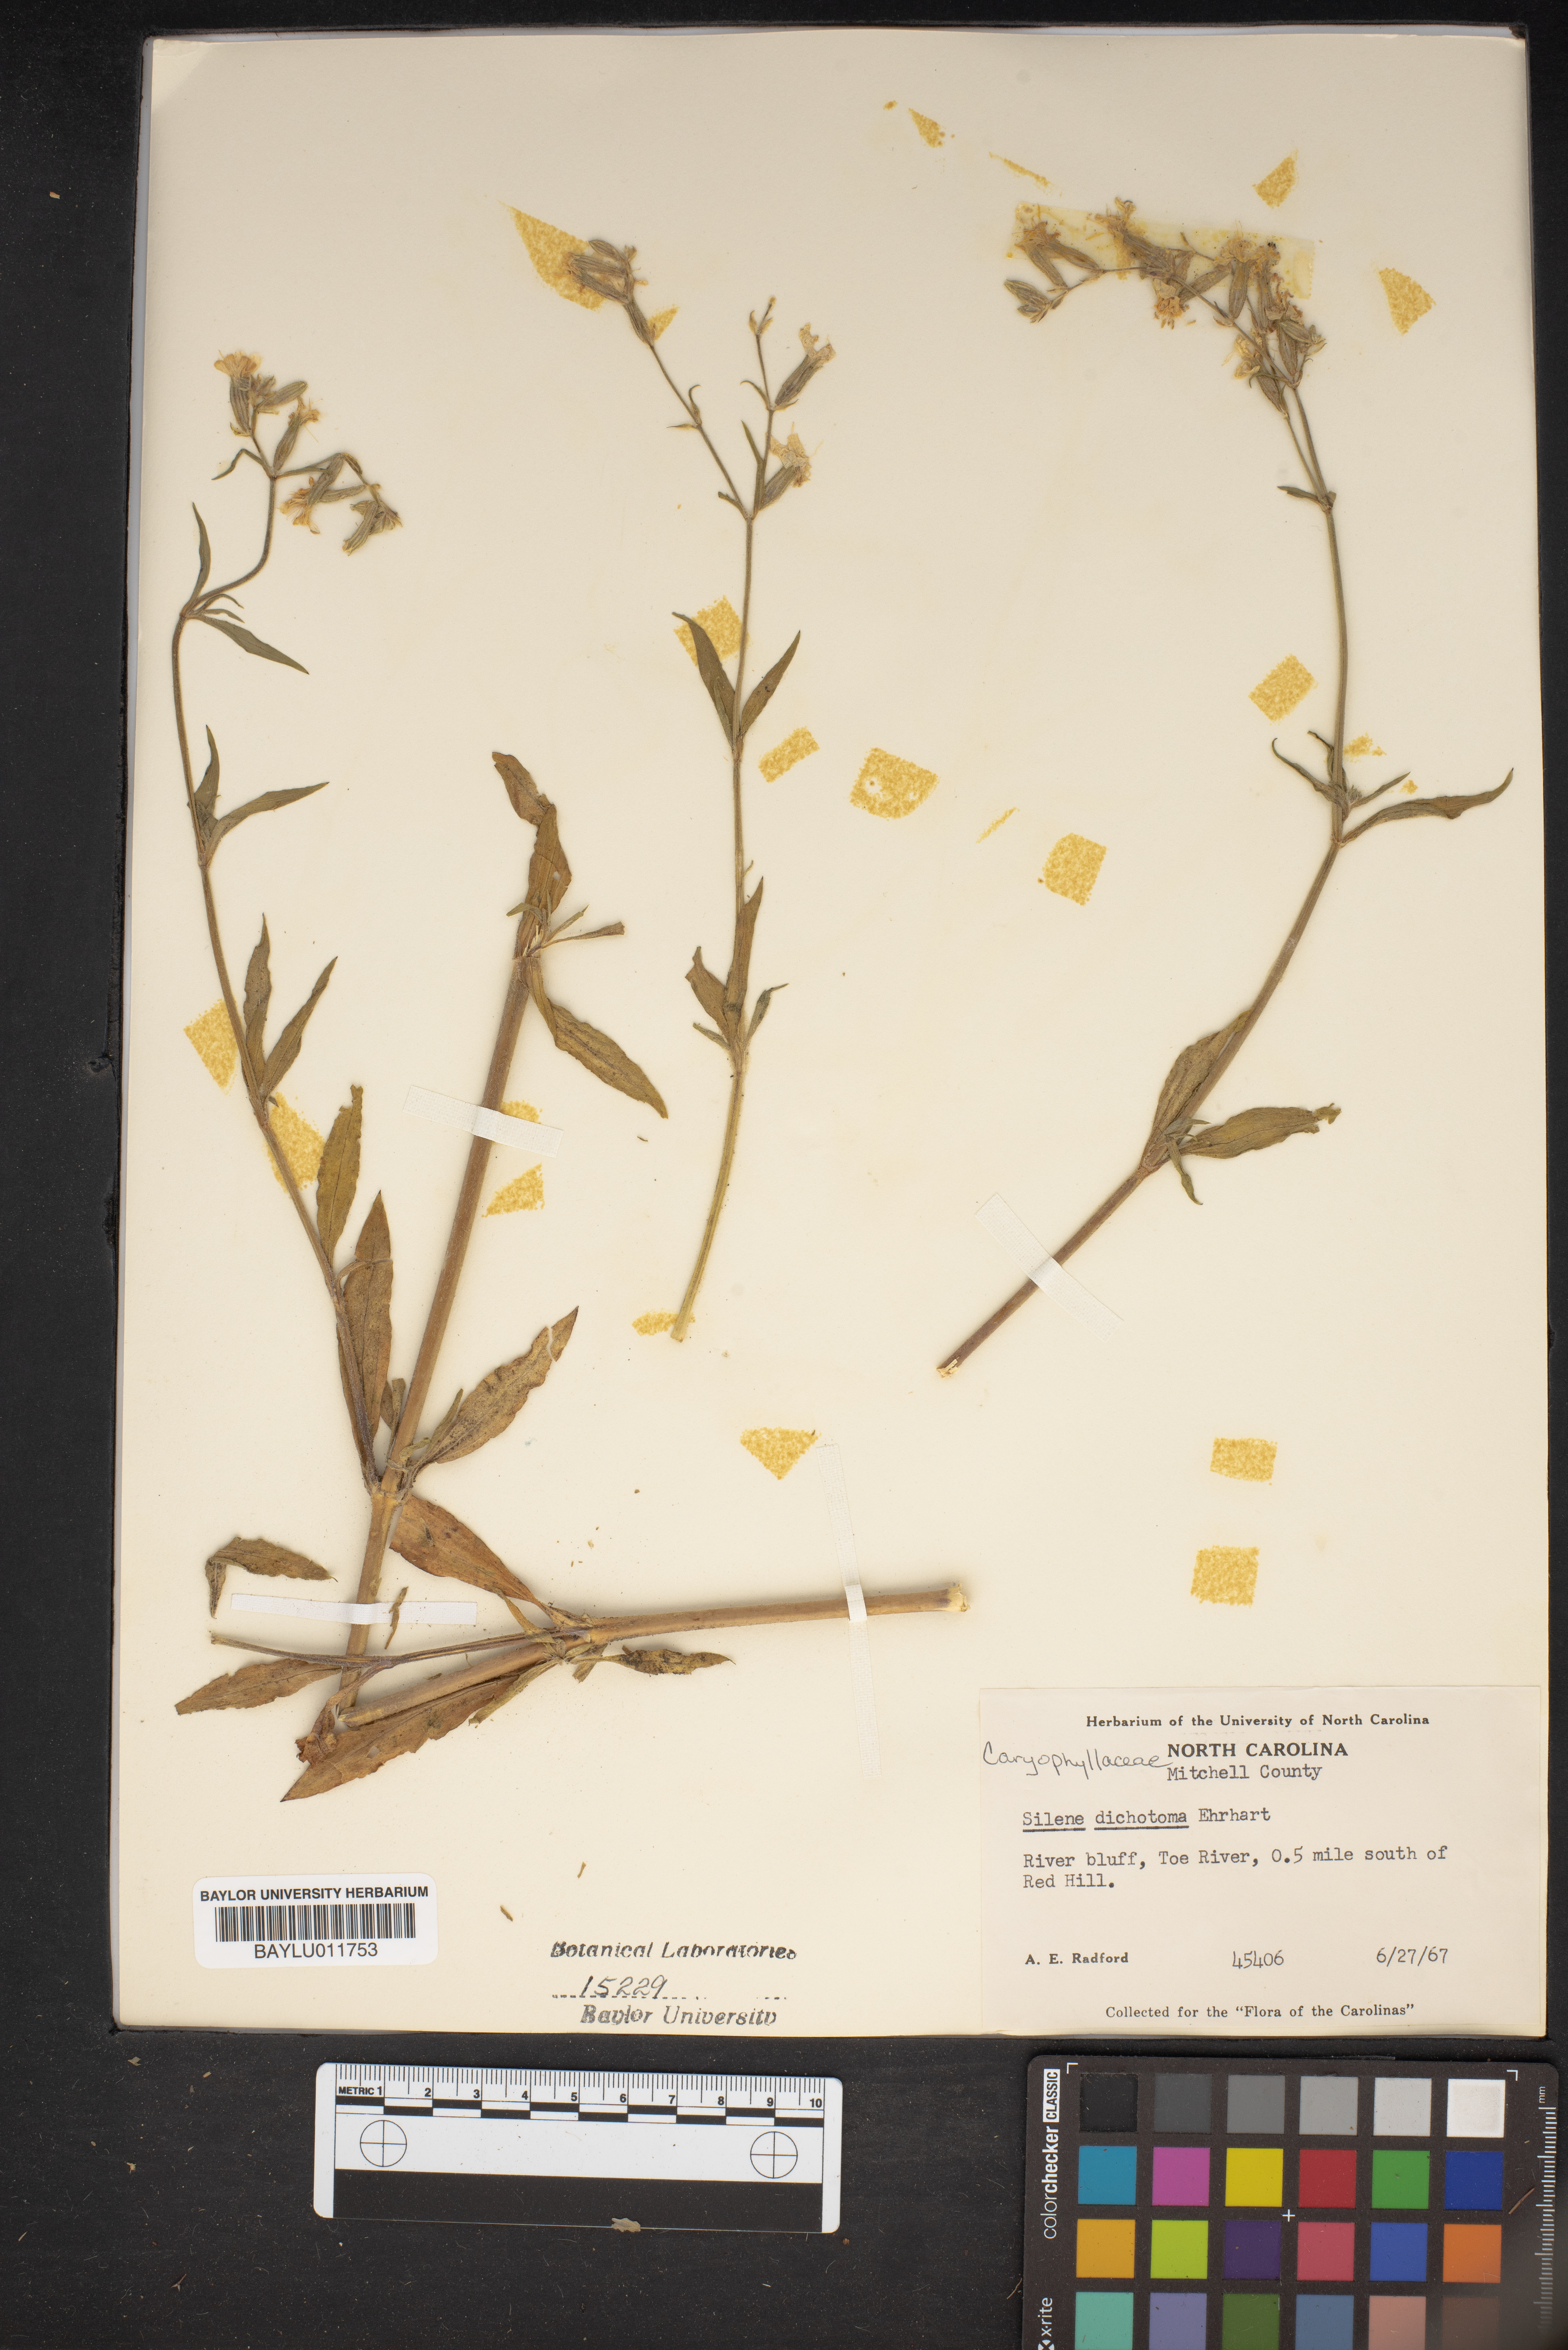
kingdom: Plantae
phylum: Tracheophyta
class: Magnoliopsida
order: Caryophyllales
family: Caryophyllaceae
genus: Silene
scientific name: Silene dichotoma
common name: Forked catchfly
